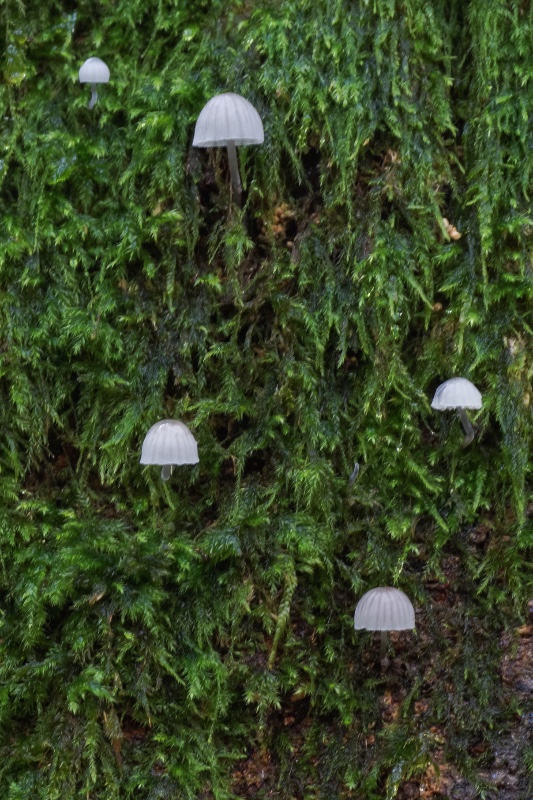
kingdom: Fungi
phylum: Basidiomycota
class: Agaricomycetes
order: Agaricales
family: Mycenaceae
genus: Mycena
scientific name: Mycena pseudocorticola
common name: gråblå bark-huesvamp
